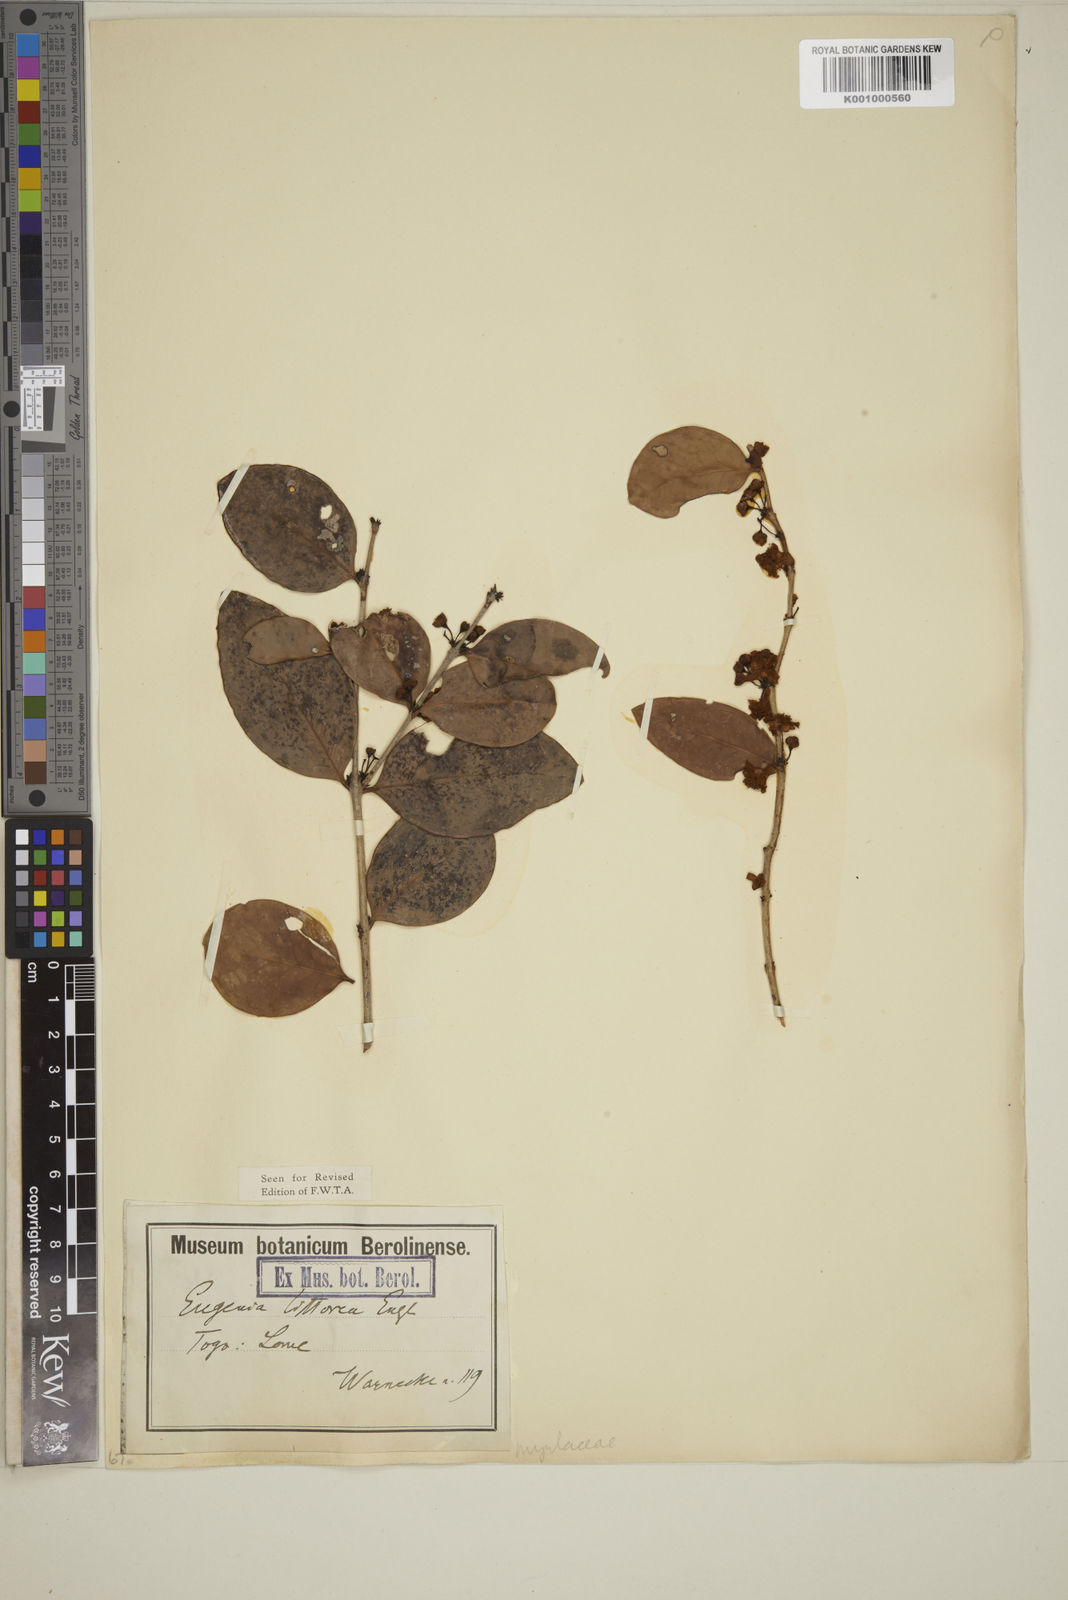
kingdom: Plantae
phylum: Tracheophyta
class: Magnoliopsida
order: Myrtales
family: Myrtaceae
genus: Eugenia
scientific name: Eugenia coronata
